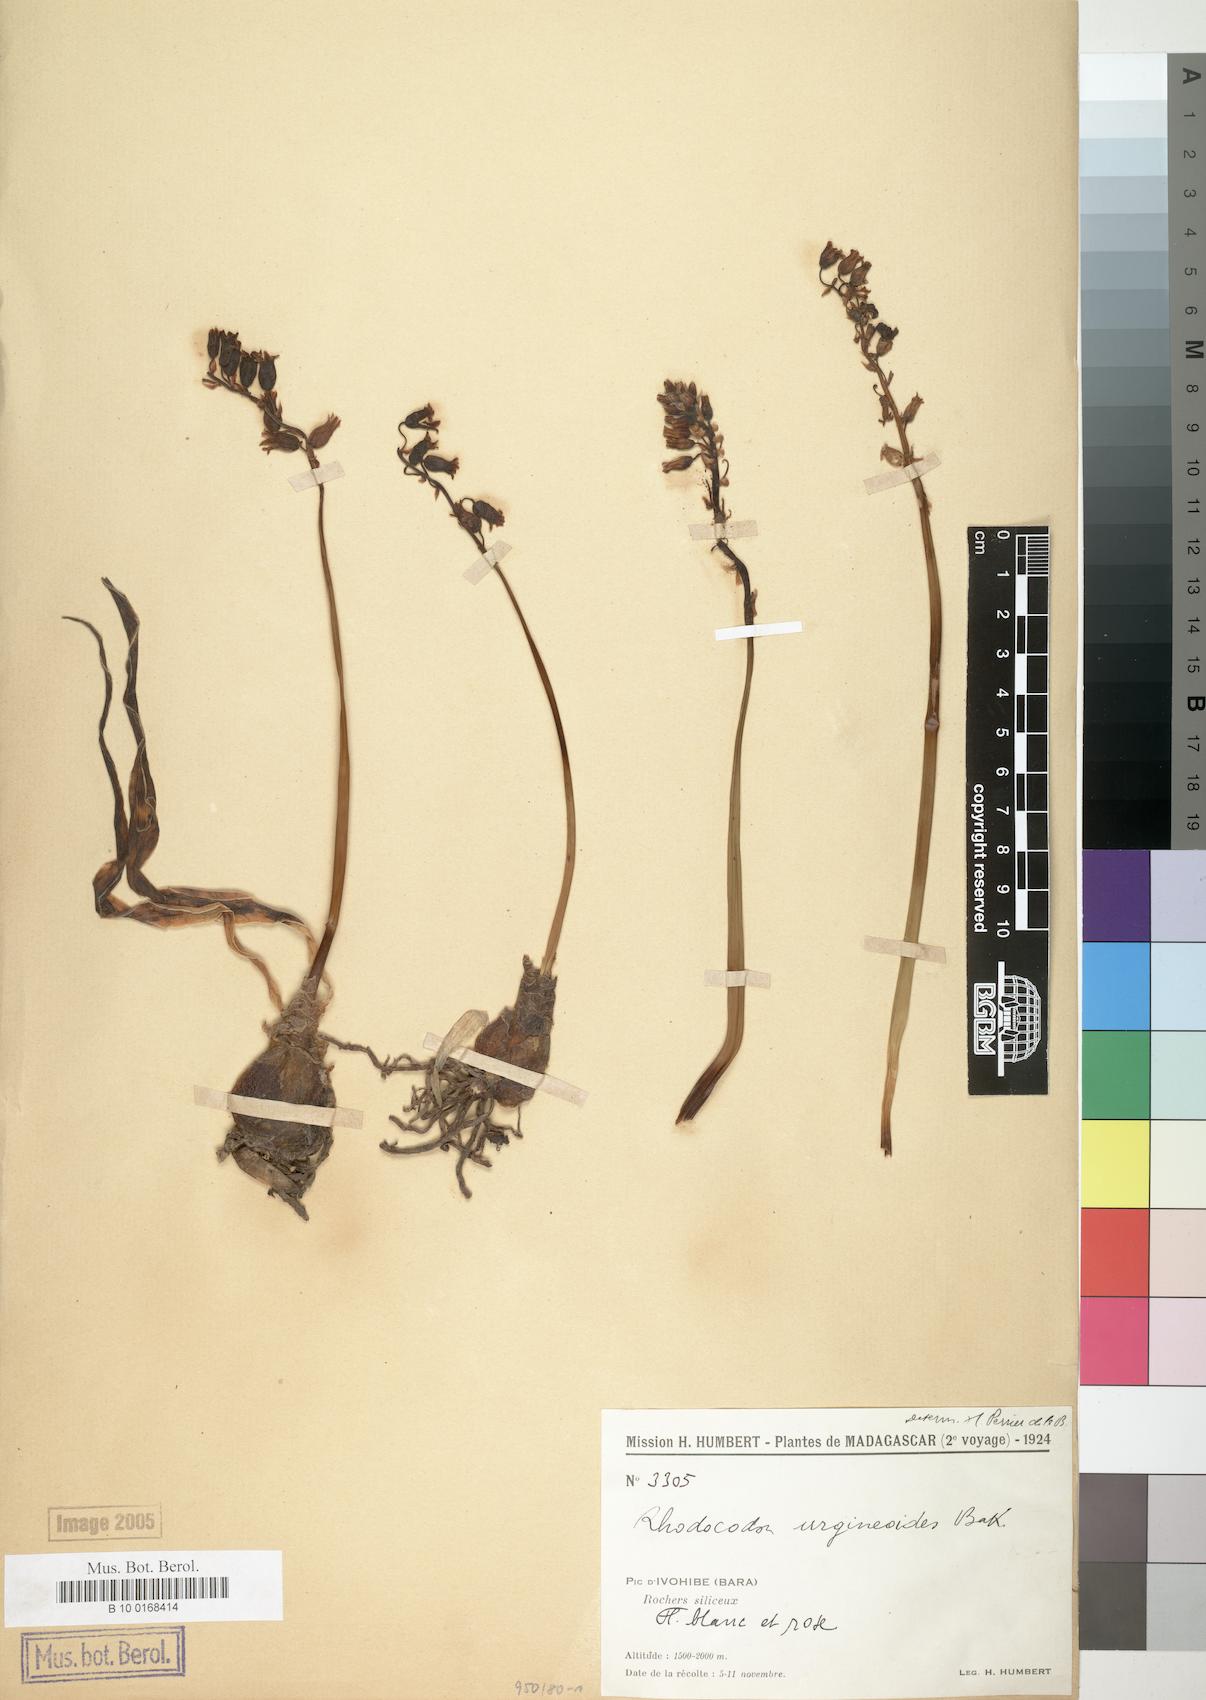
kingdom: Plantae
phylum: Tracheophyta
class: Liliopsida
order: Asparagales
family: Asparagaceae
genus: Drimia
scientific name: Drimia urgineoides
